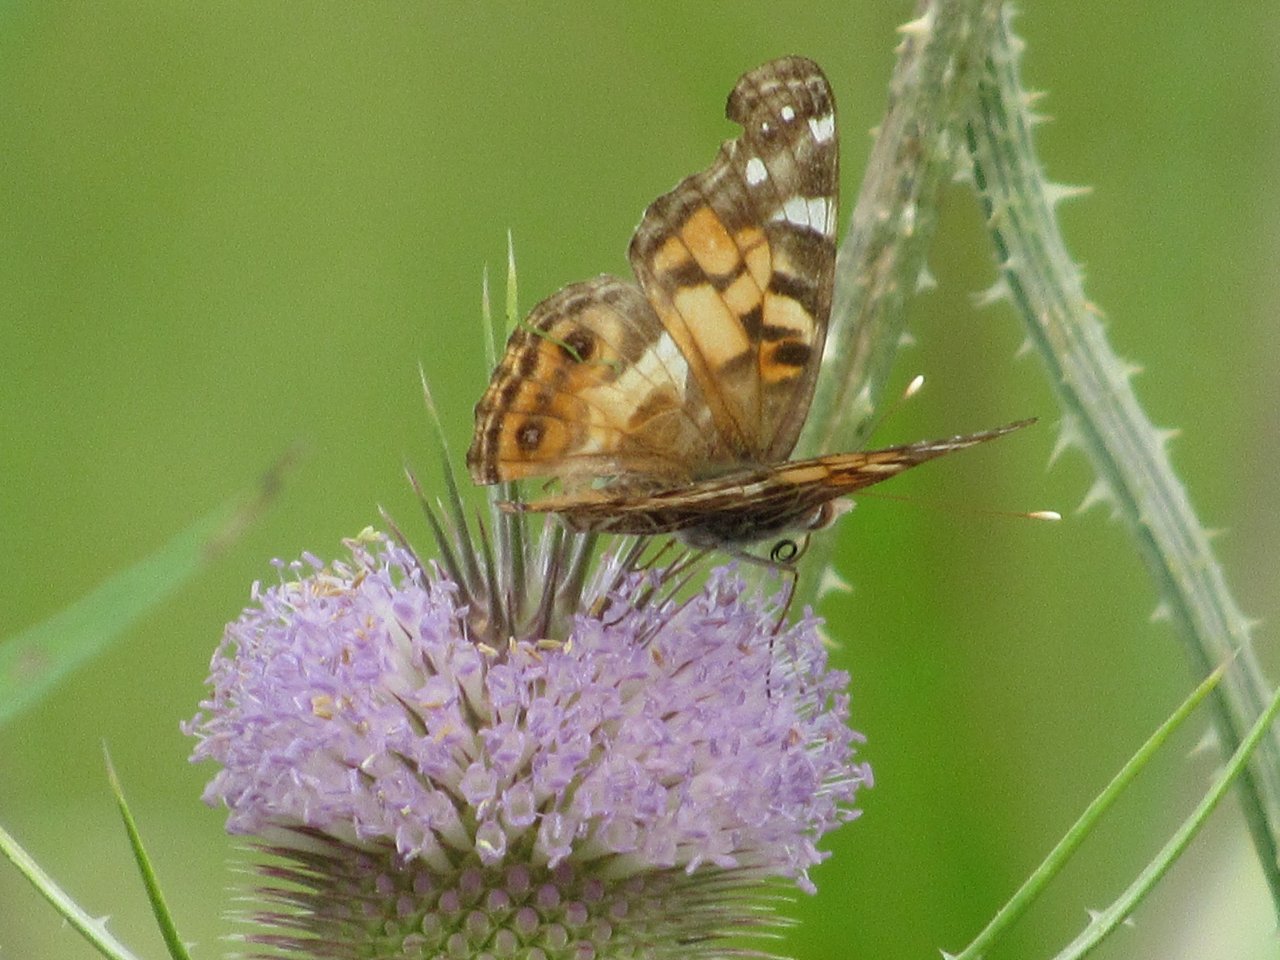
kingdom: Animalia
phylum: Arthropoda
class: Insecta
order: Lepidoptera
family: Nymphalidae
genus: Vanessa
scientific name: Vanessa virginiensis
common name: American Lady
